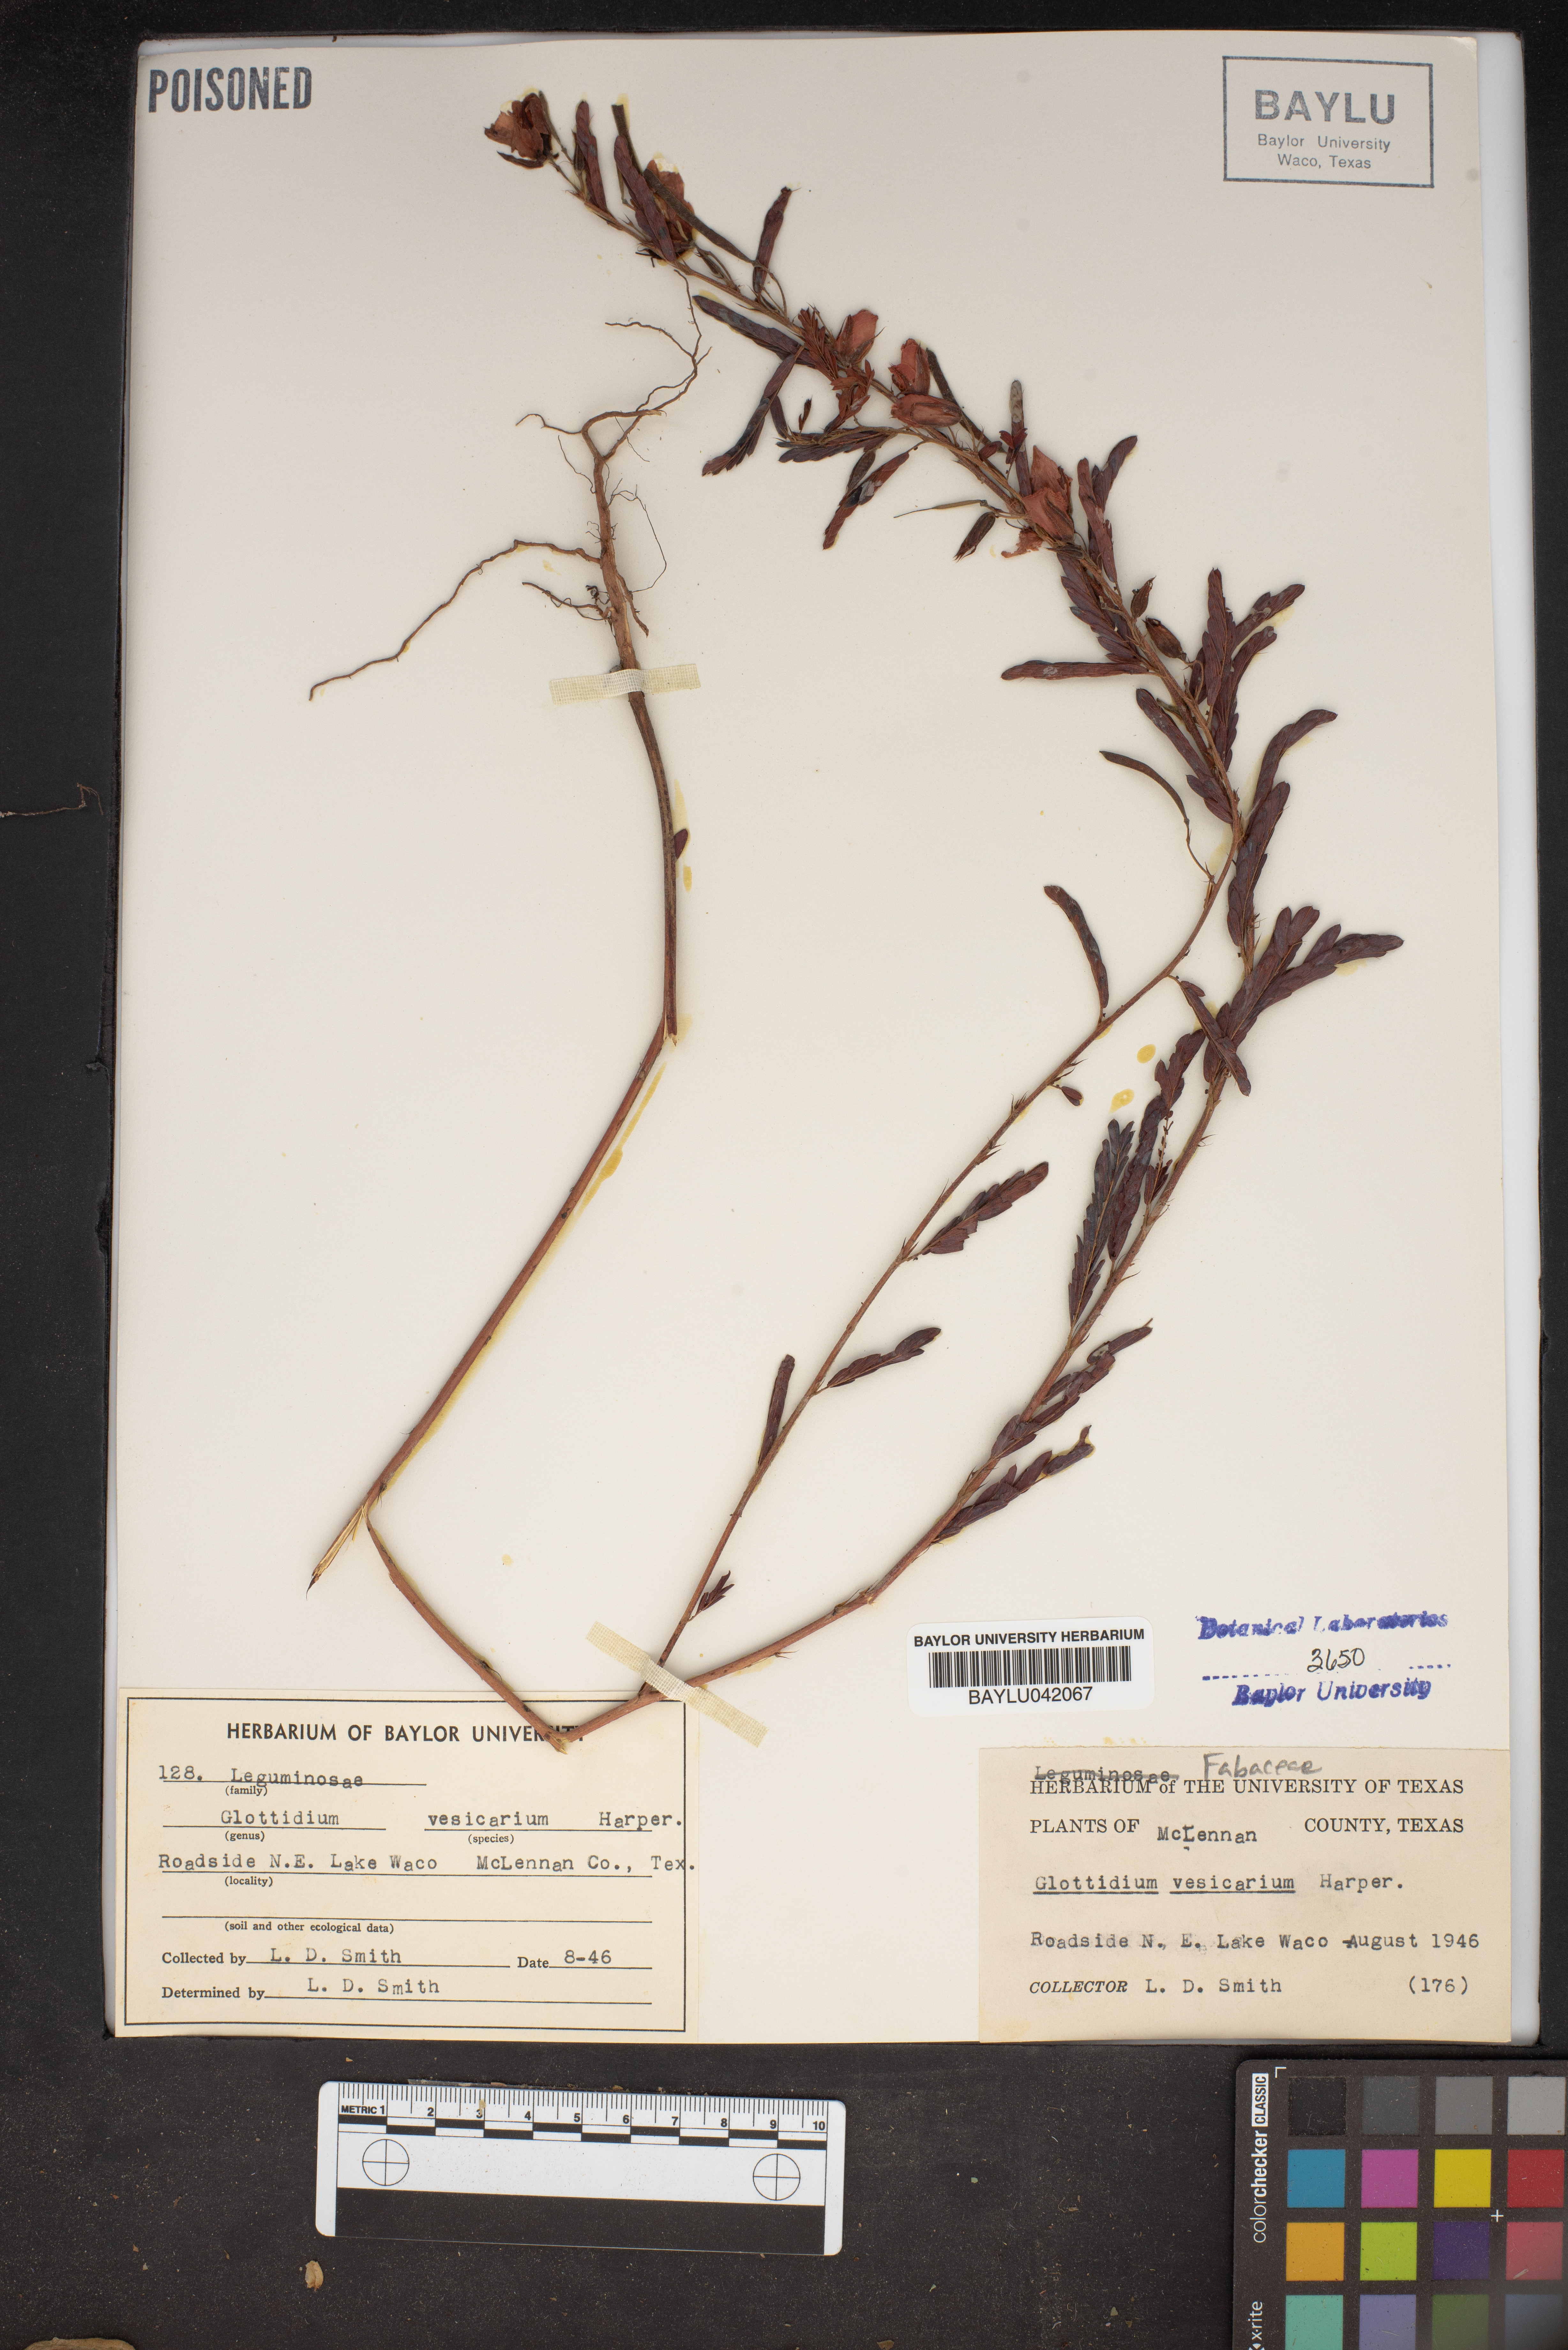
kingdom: Plantae
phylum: Tracheophyta
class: Magnoliopsida
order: Fabales
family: Fabaceae
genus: Sesbania
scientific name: Sesbania vesicaria
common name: Bagpod
